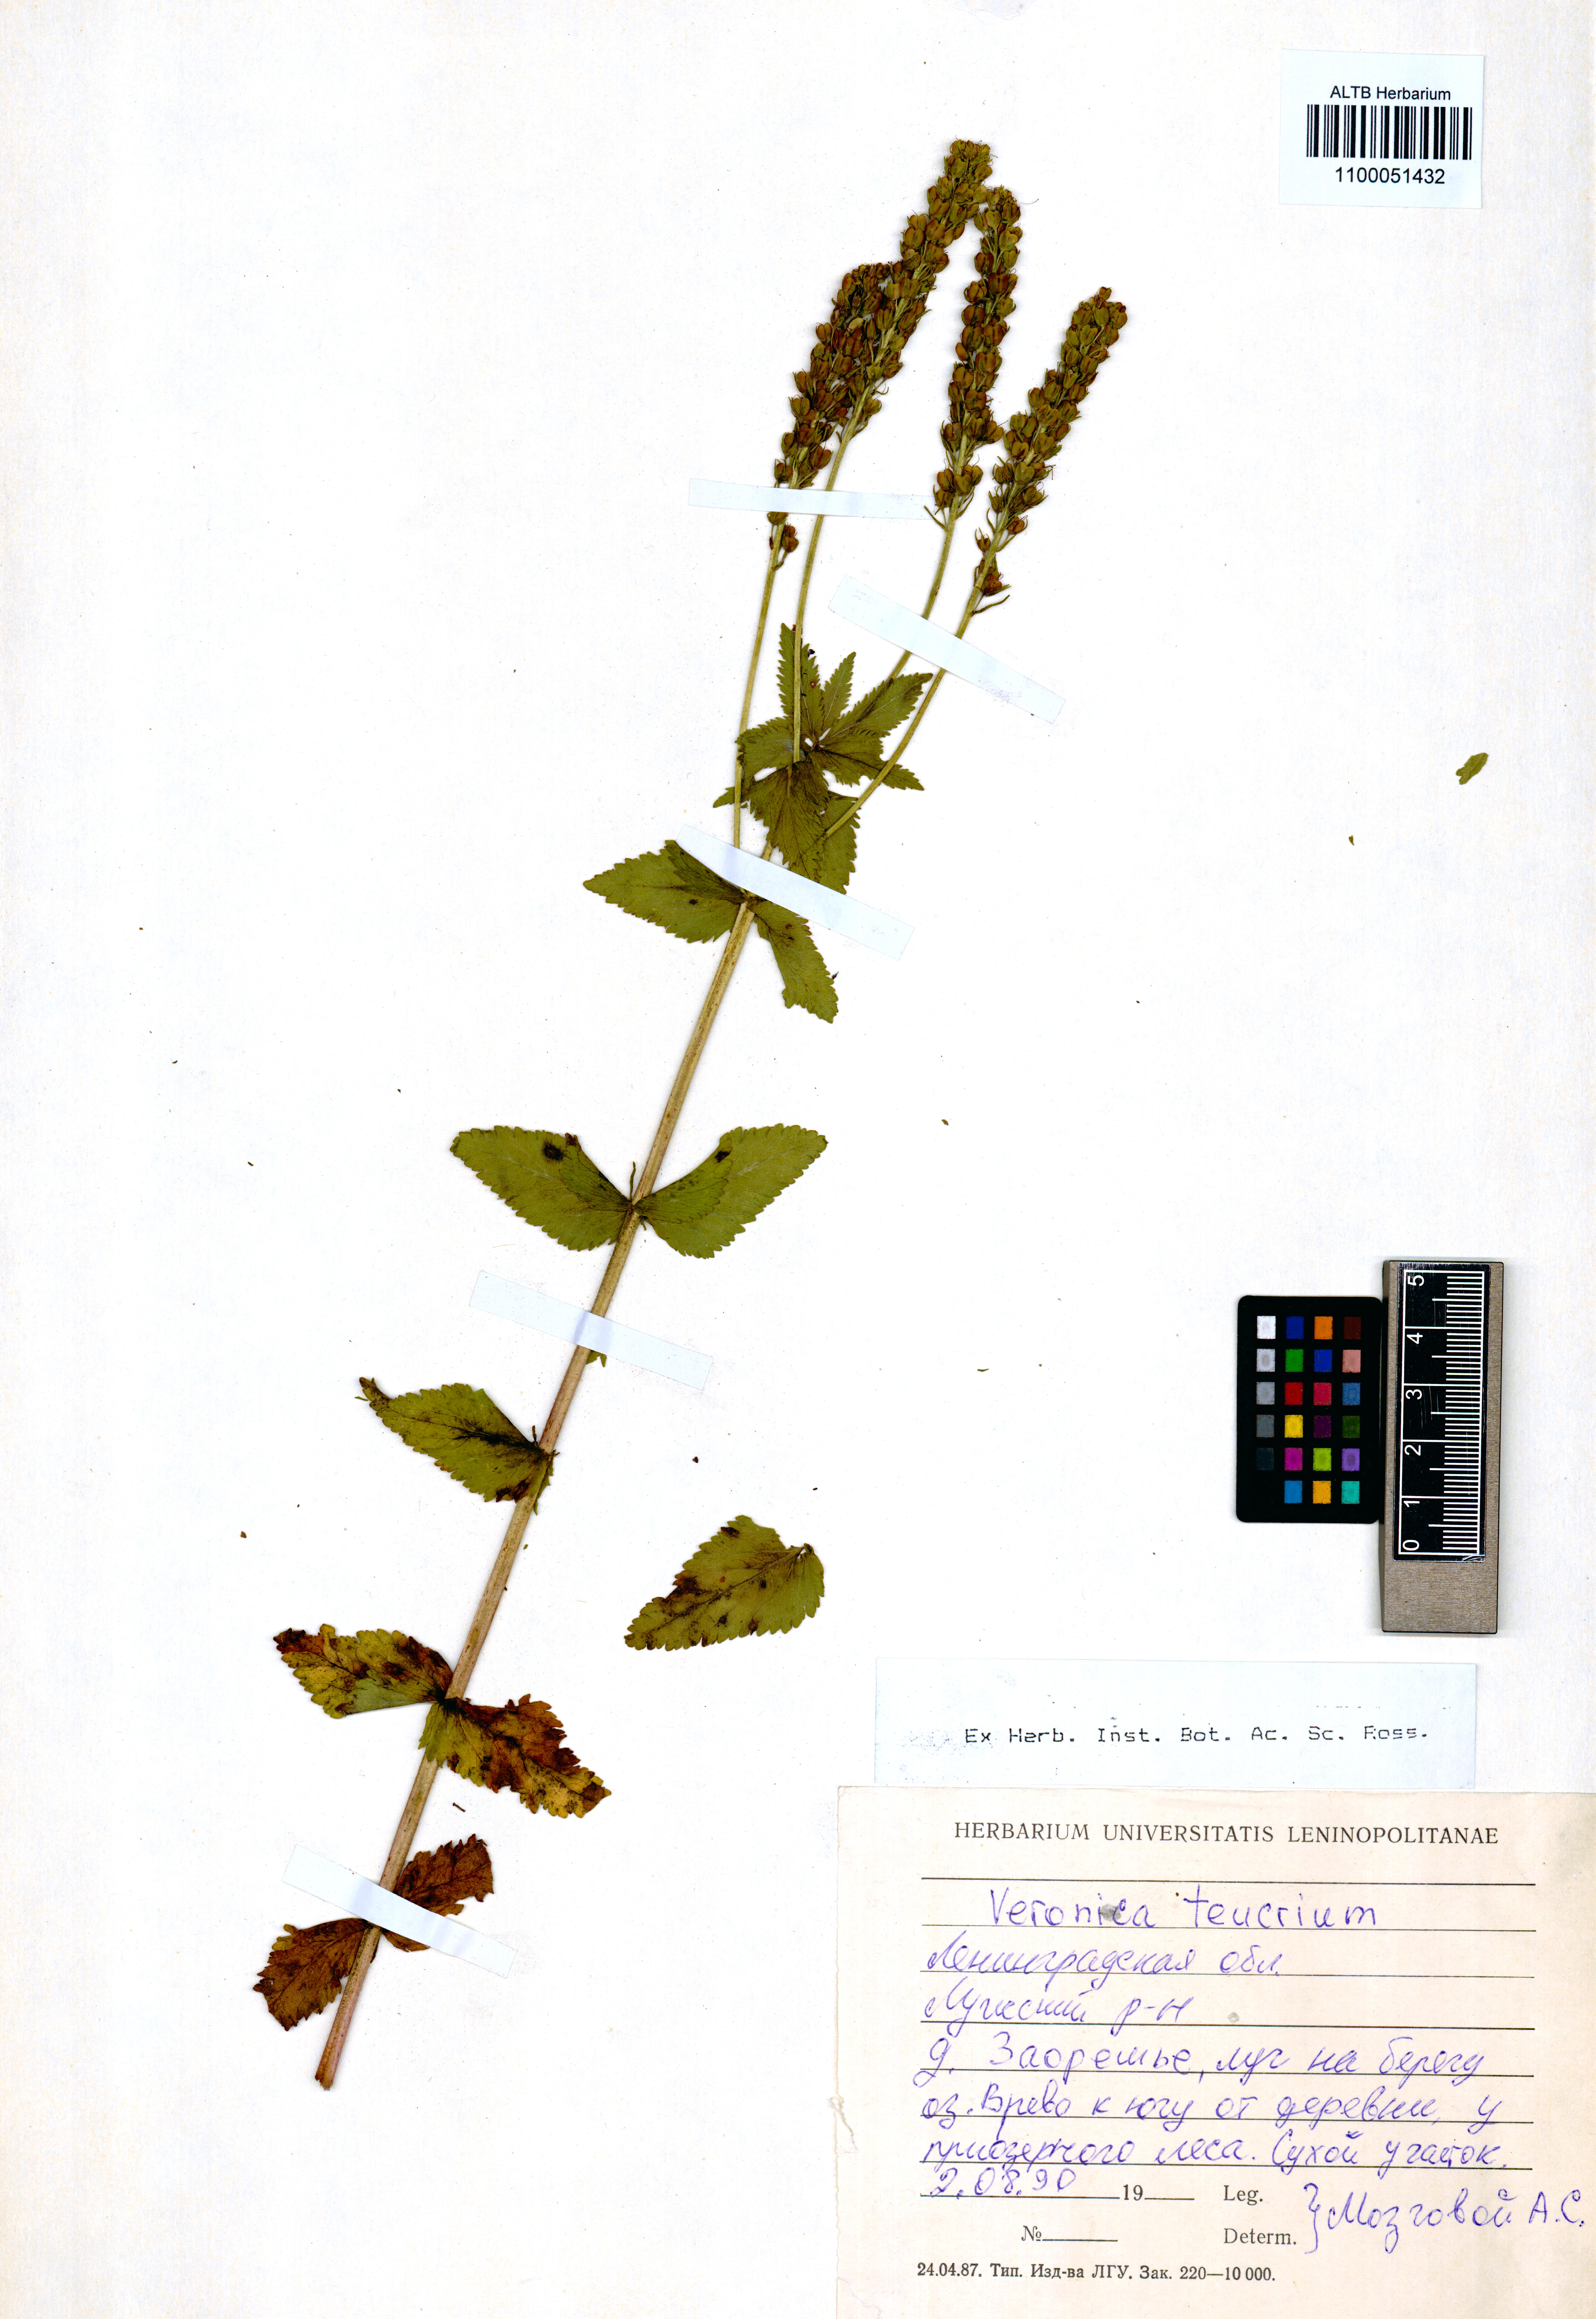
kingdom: Plantae
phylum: Tracheophyta
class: Magnoliopsida
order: Lamiales
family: Plantaginaceae
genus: Veronica
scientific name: Veronica teucrium
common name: Large speedwell
